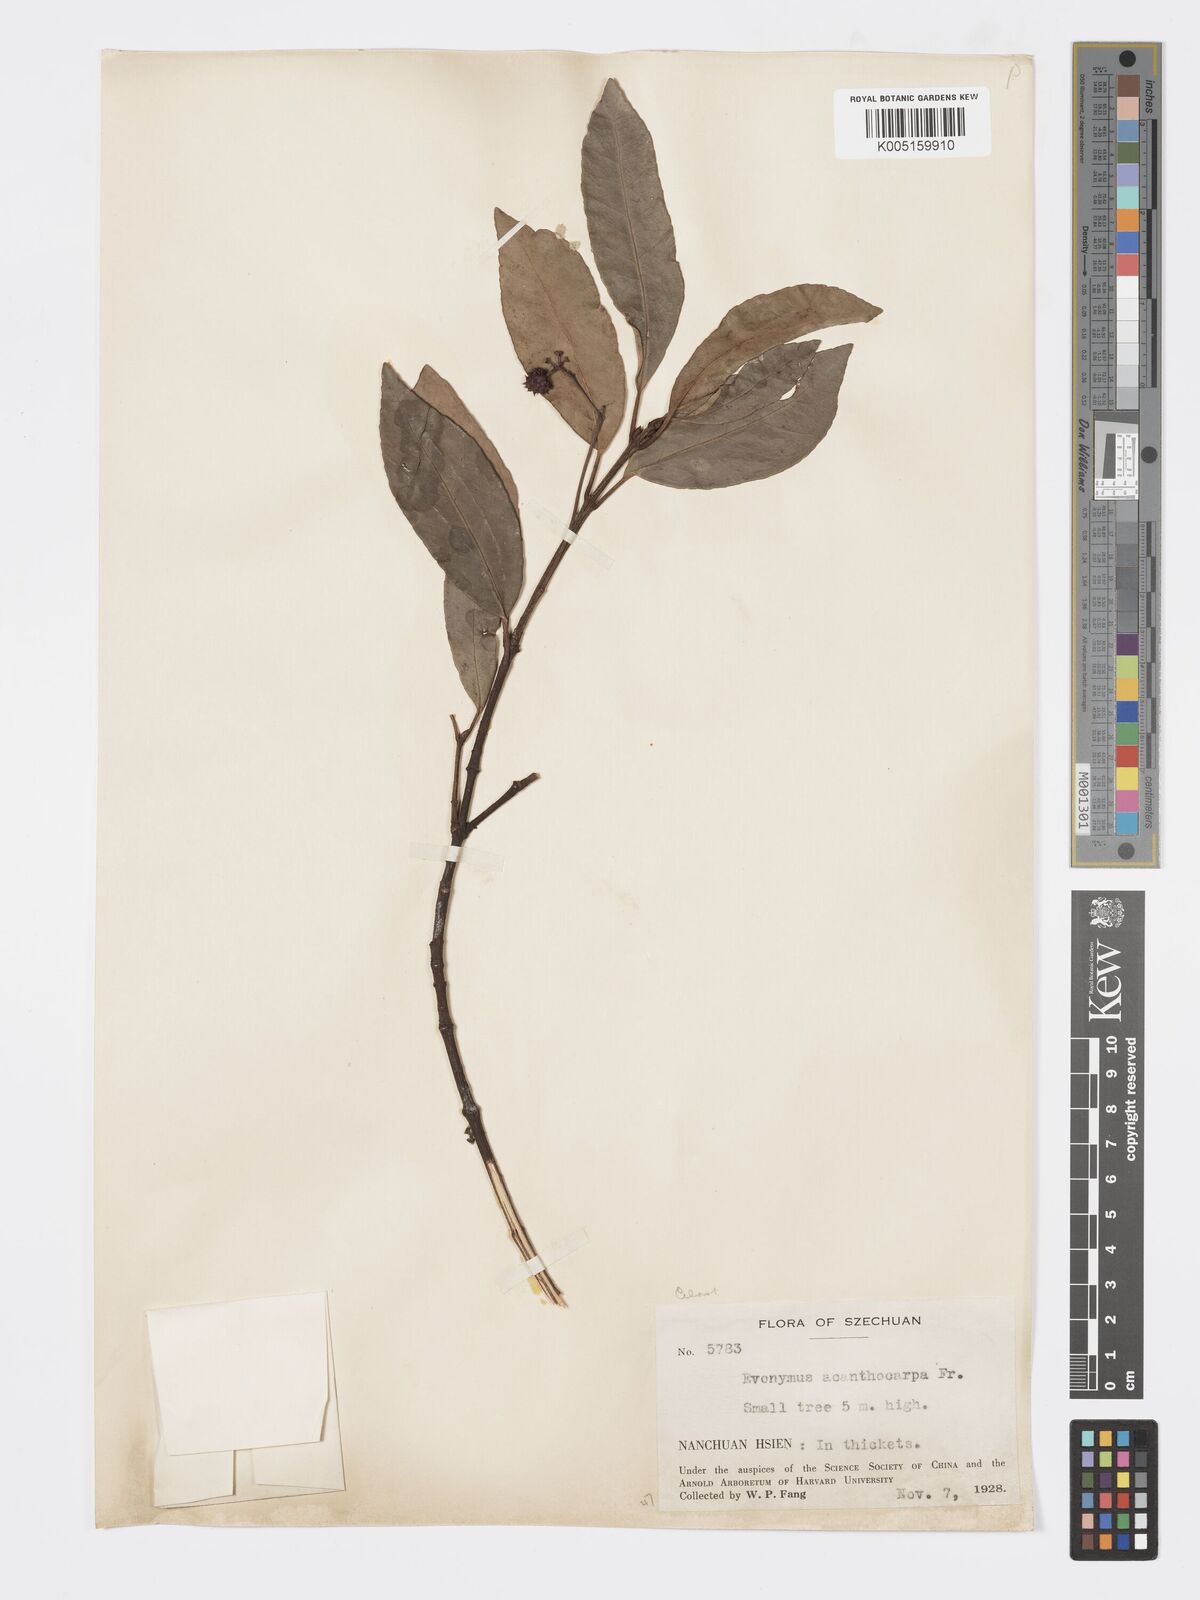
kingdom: Plantae
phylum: Tracheophyta
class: Magnoliopsida
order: Celastrales
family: Celastraceae
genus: Euonymus
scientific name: Euonymus acanthocarpus
